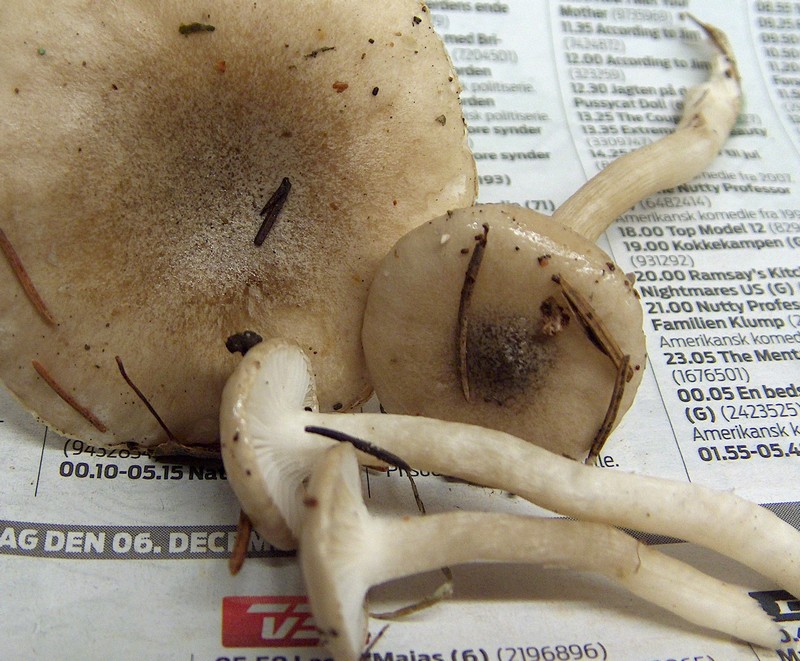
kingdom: Fungi
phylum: Basidiomycota
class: Agaricomycetes
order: Agaricales
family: Hygrophoraceae
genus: Hygrophorus
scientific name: Hygrophorus agathosmus
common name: vellugtende sneglehat
